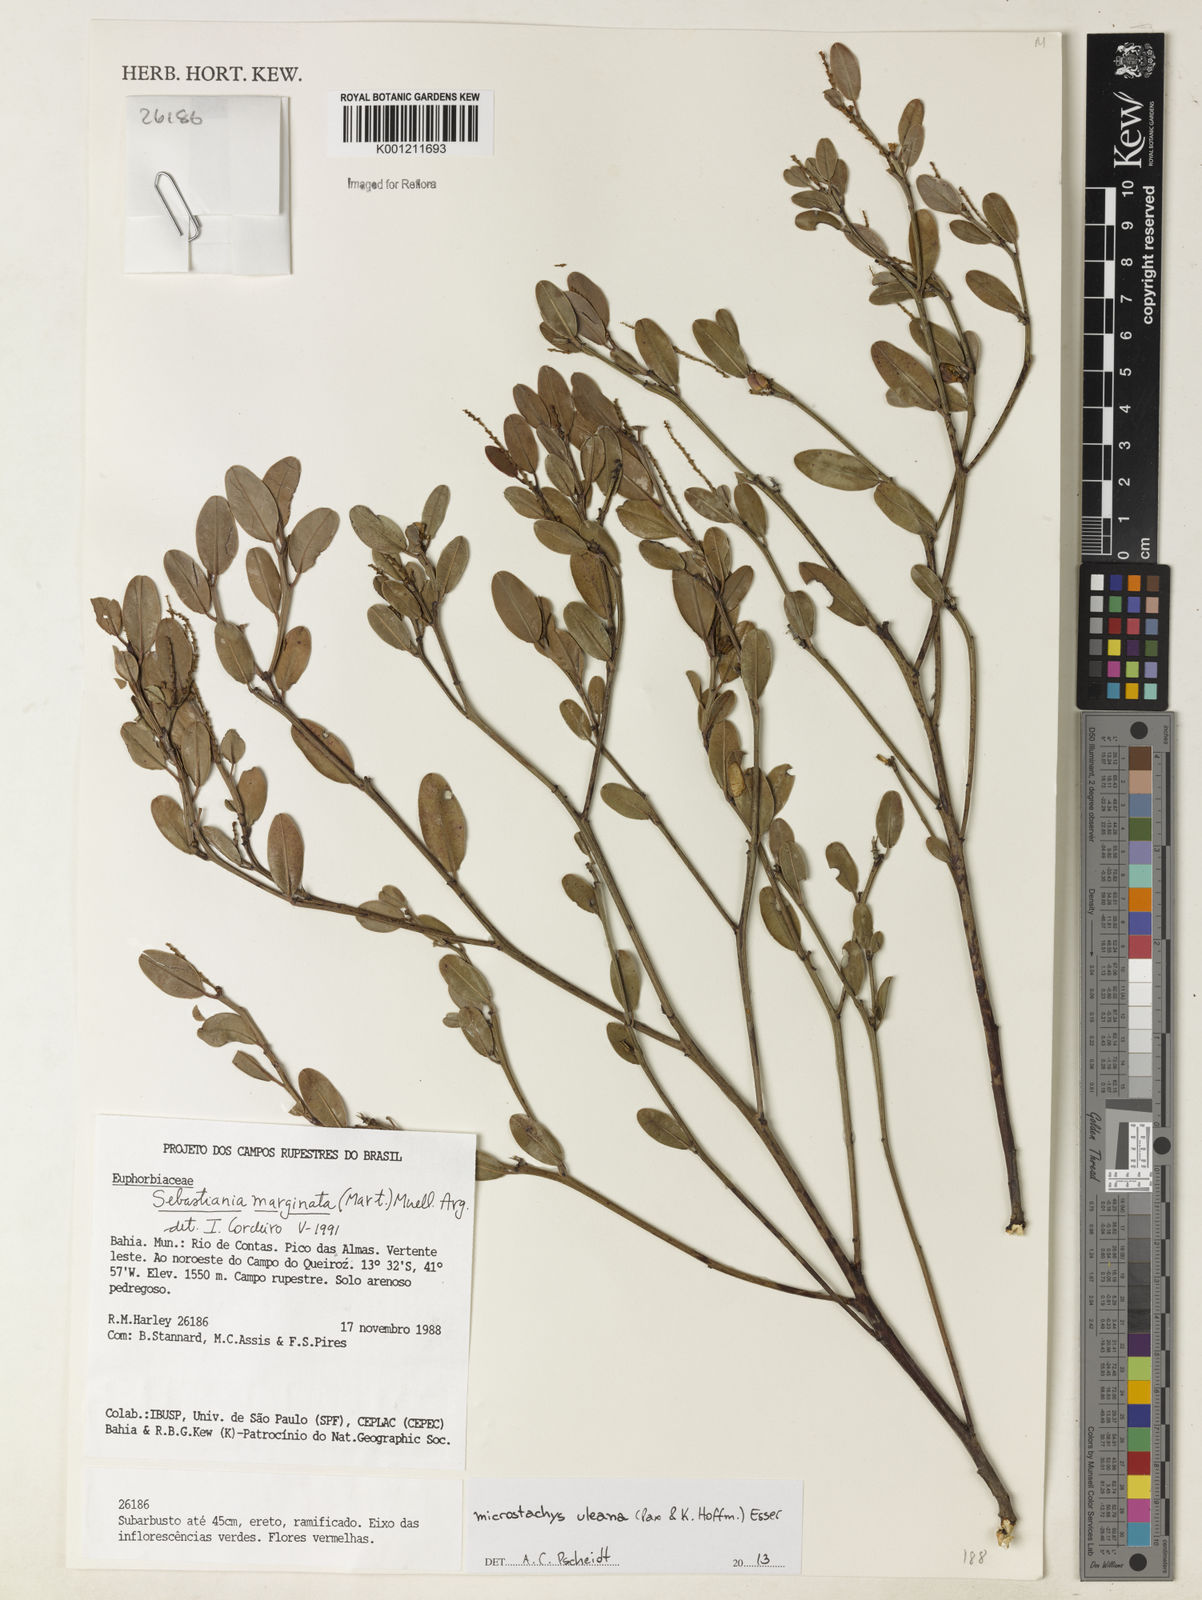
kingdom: Plantae
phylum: Tracheophyta
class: Magnoliopsida
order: Malpighiales
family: Euphorbiaceae
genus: Microstachys
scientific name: Microstachys uleana
